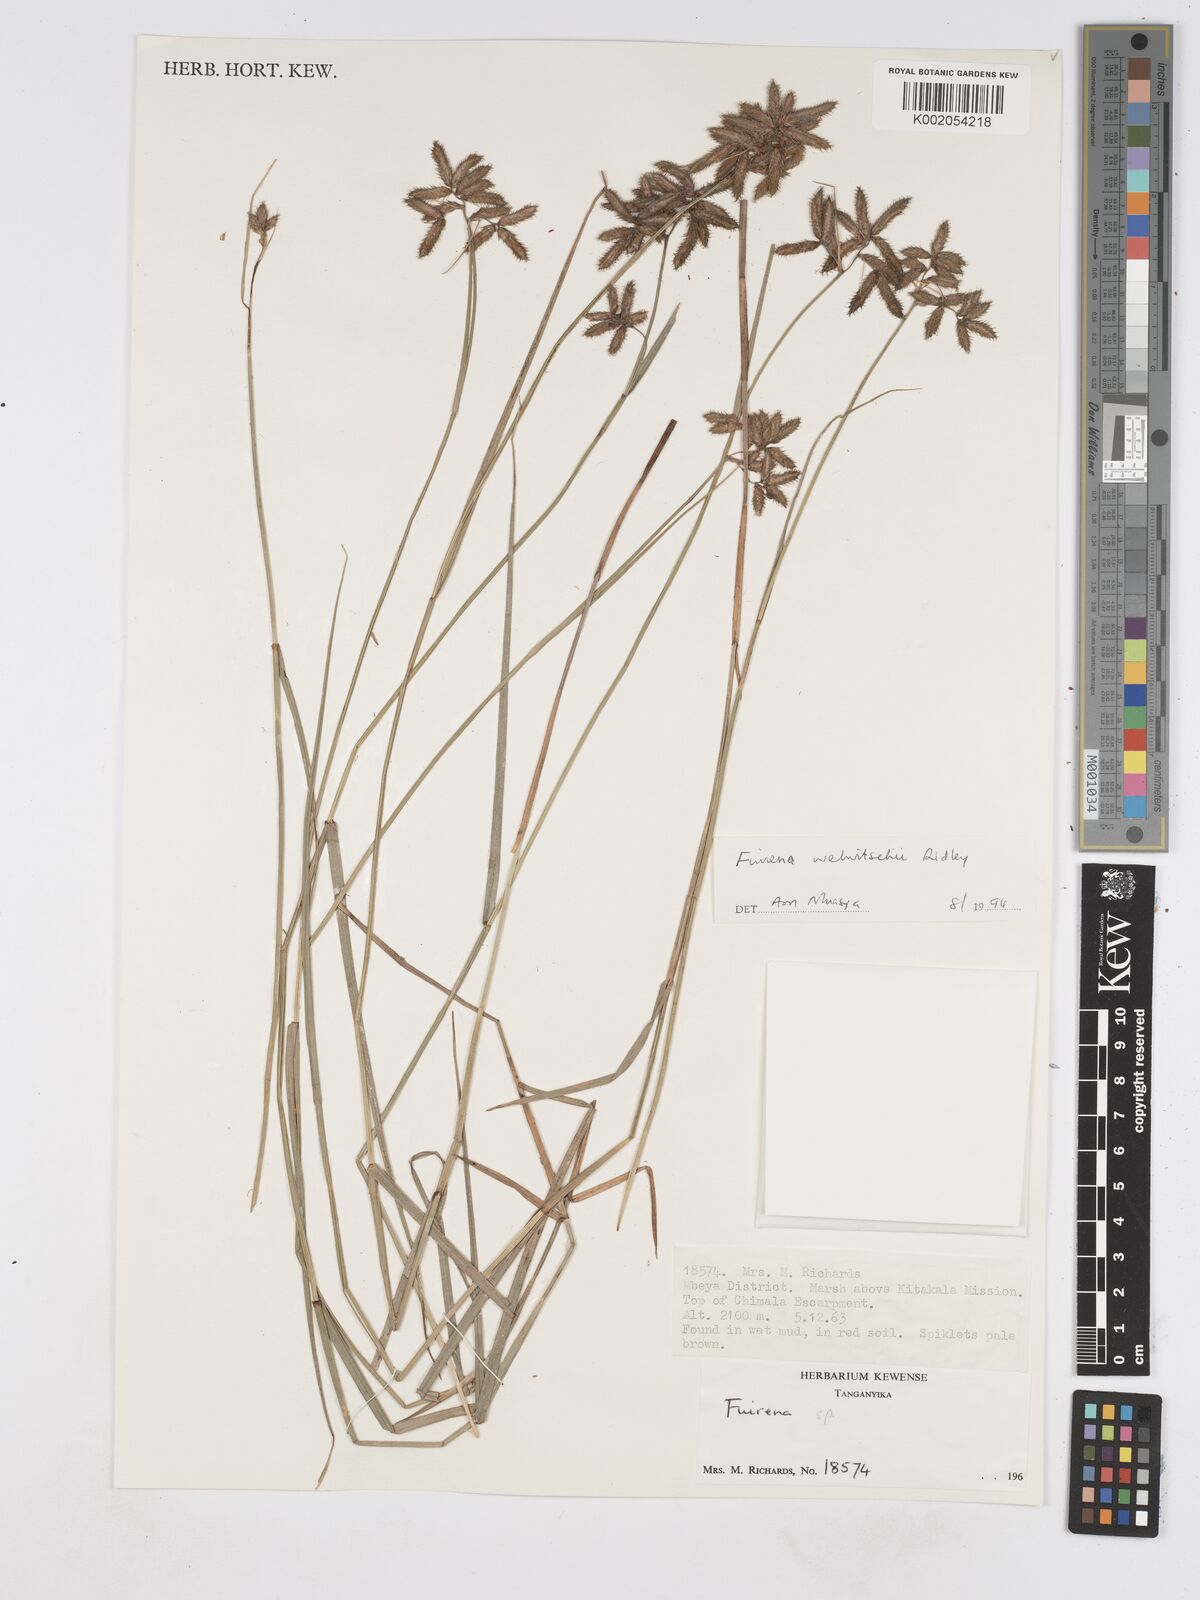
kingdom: Plantae
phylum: Tracheophyta
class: Liliopsida
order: Poales
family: Cyperaceae
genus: Fuirena
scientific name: Fuirena welwitschii
